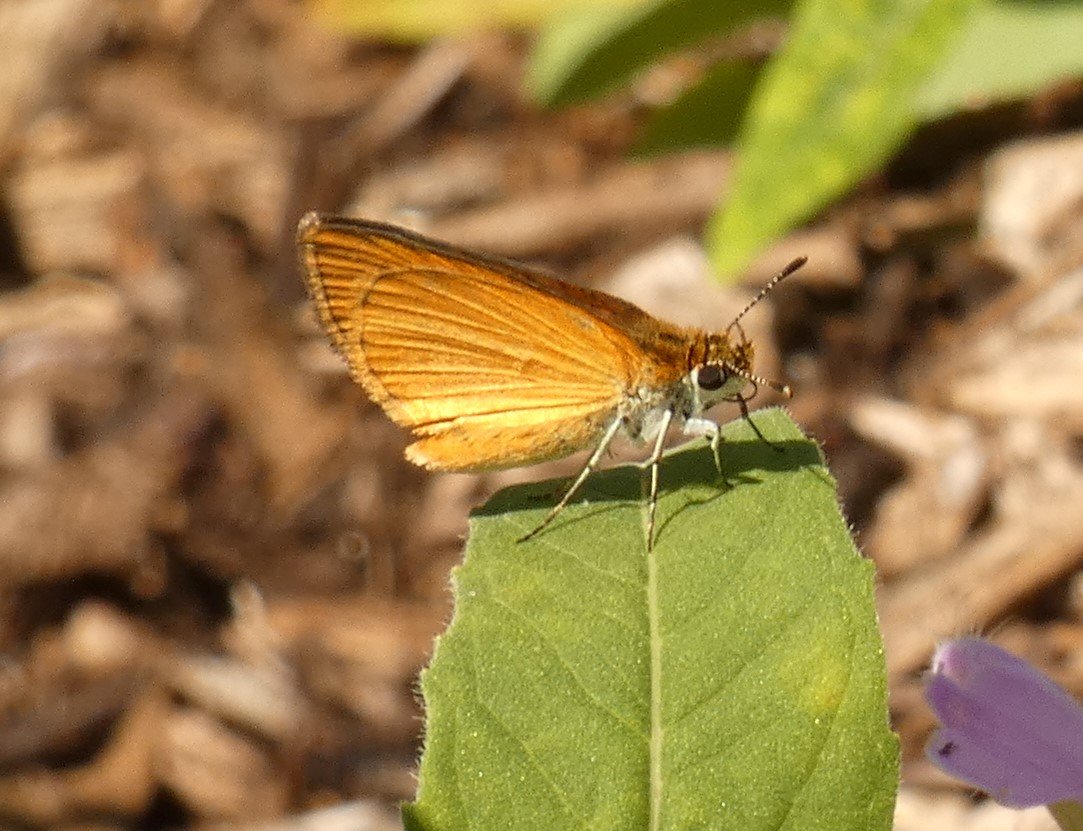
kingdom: Animalia
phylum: Arthropoda
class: Insecta
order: Lepidoptera
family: Hesperiidae
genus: Ancyloxypha
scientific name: Ancyloxypha numitor
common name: Least Skipper
